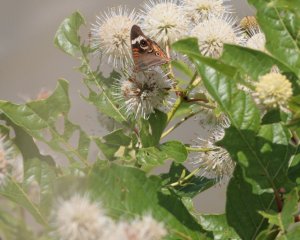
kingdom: Animalia
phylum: Arthropoda
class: Insecta
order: Lepidoptera
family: Nymphalidae
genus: Junonia
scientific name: Junonia coenia
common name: Common Buckeye
